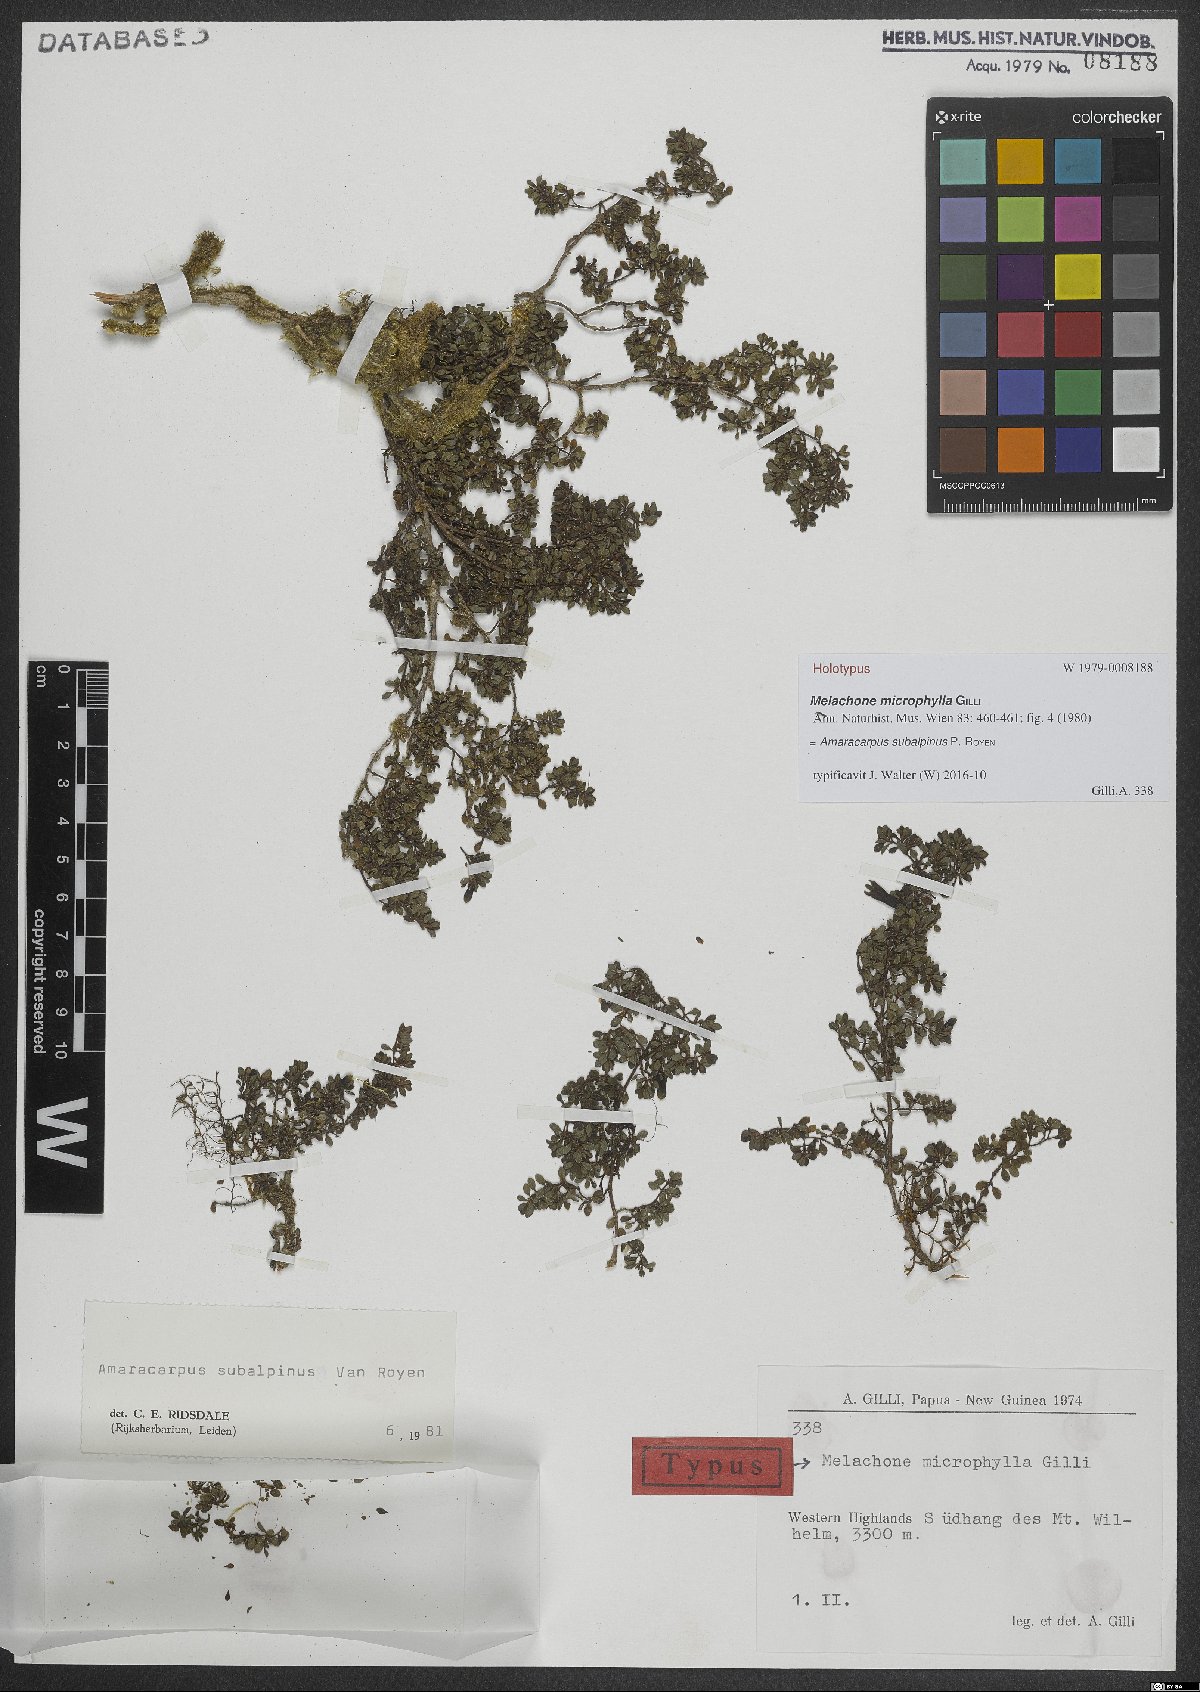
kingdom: Plantae
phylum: Tracheophyta
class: Magnoliopsida
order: Gentianales
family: Rubiaceae
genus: Dolianthus
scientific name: Dolianthus subalpinus
